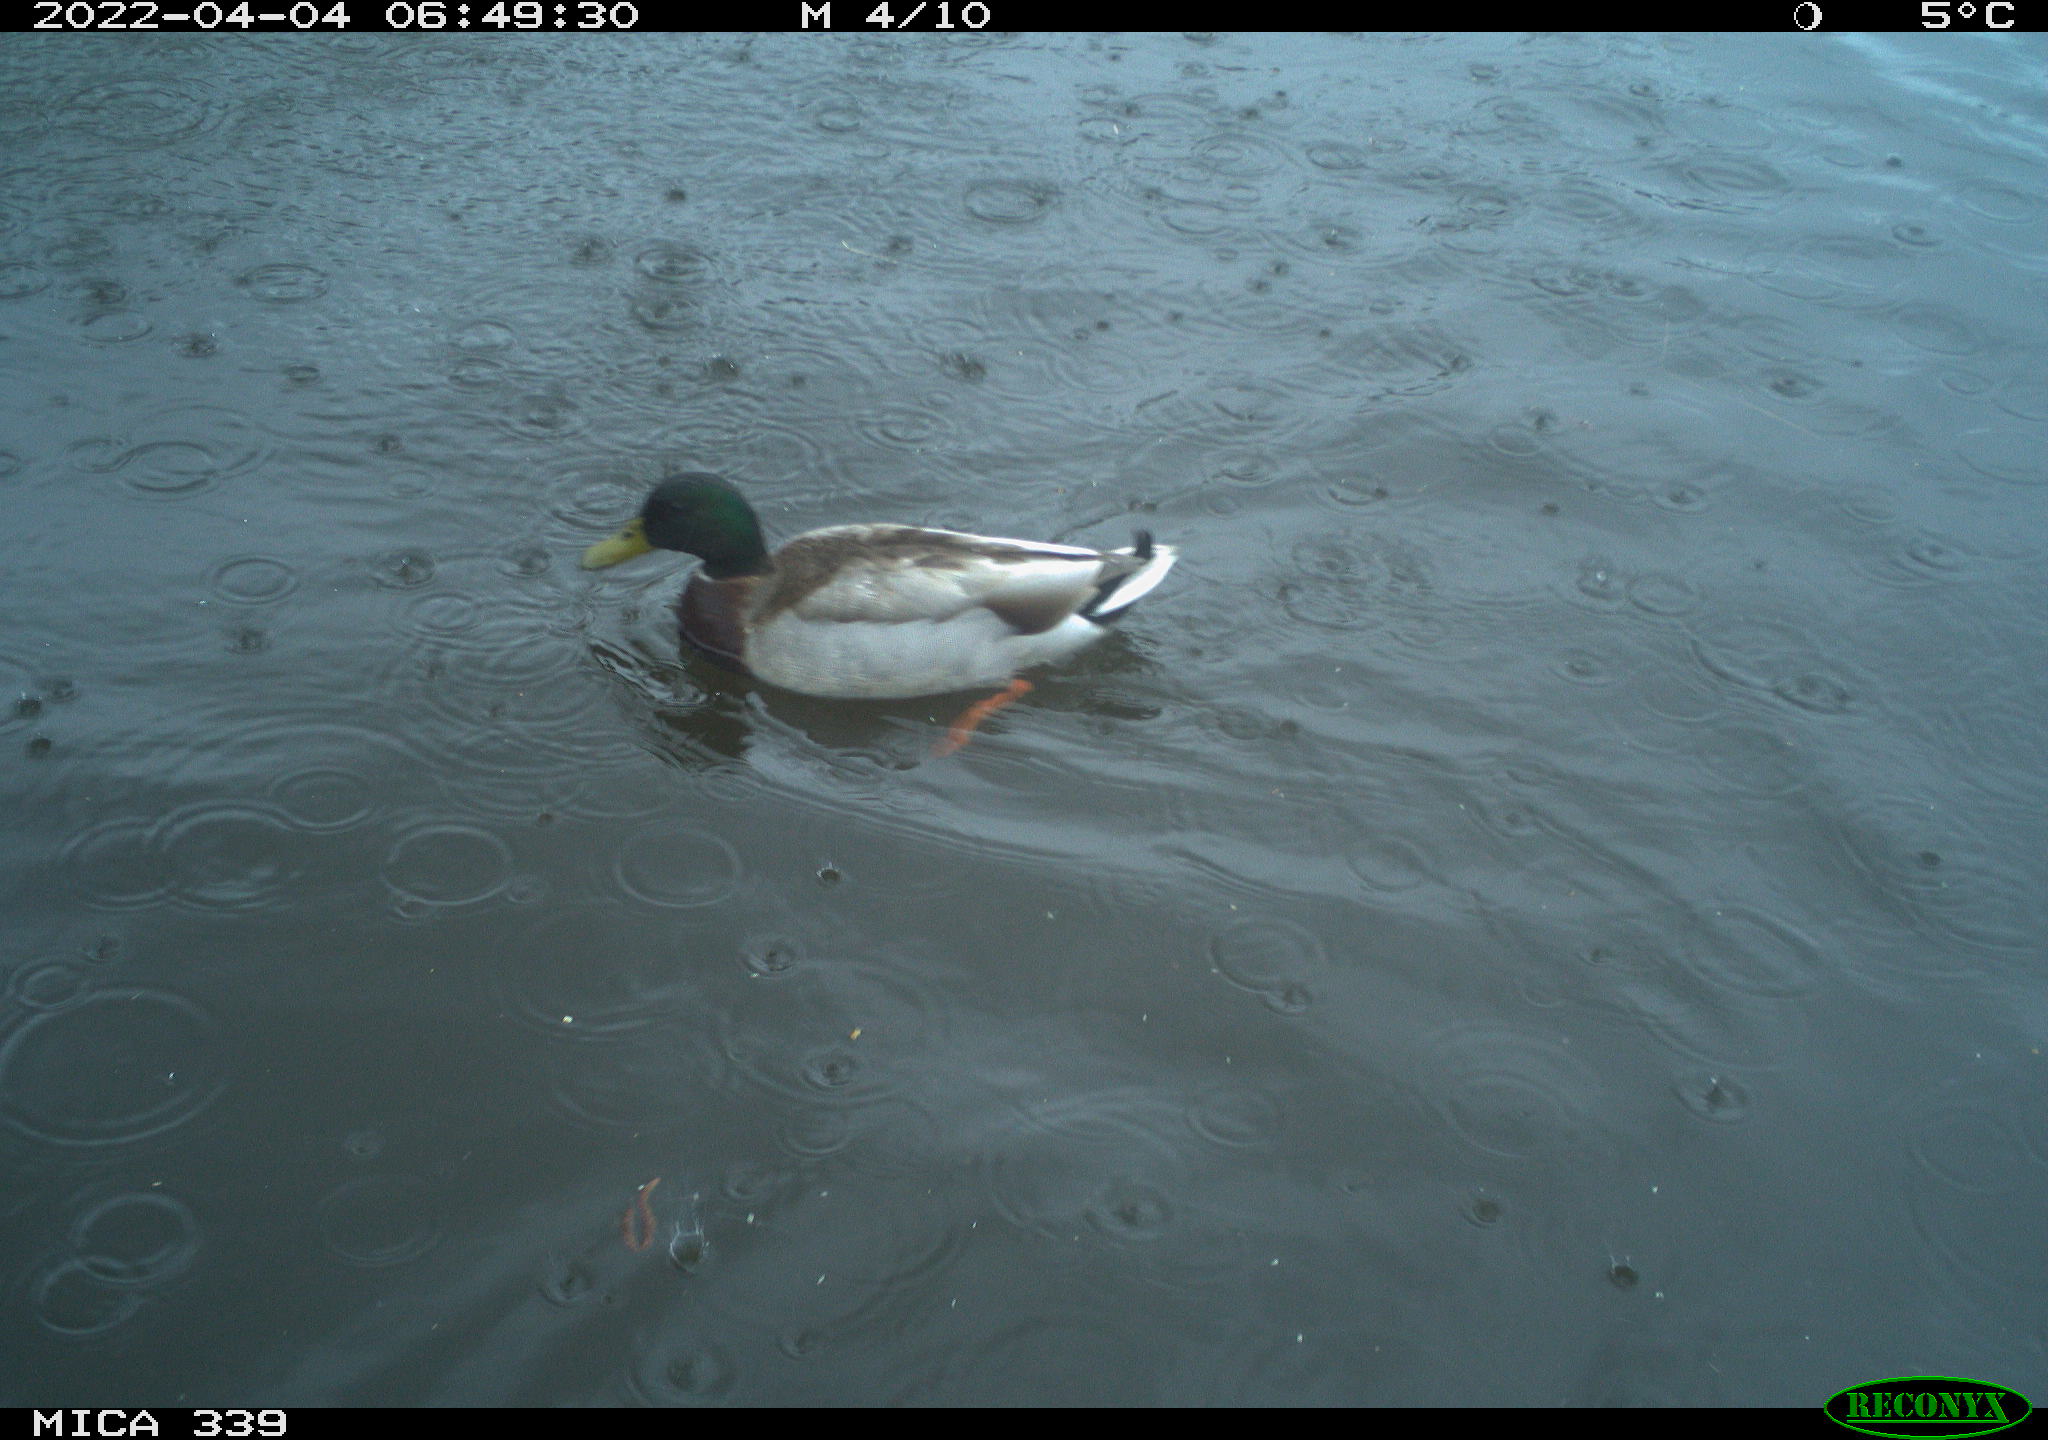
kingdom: Animalia
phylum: Chordata
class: Aves
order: Anseriformes
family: Anatidae
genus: Anas
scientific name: Anas platyrhynchos
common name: Mallard
